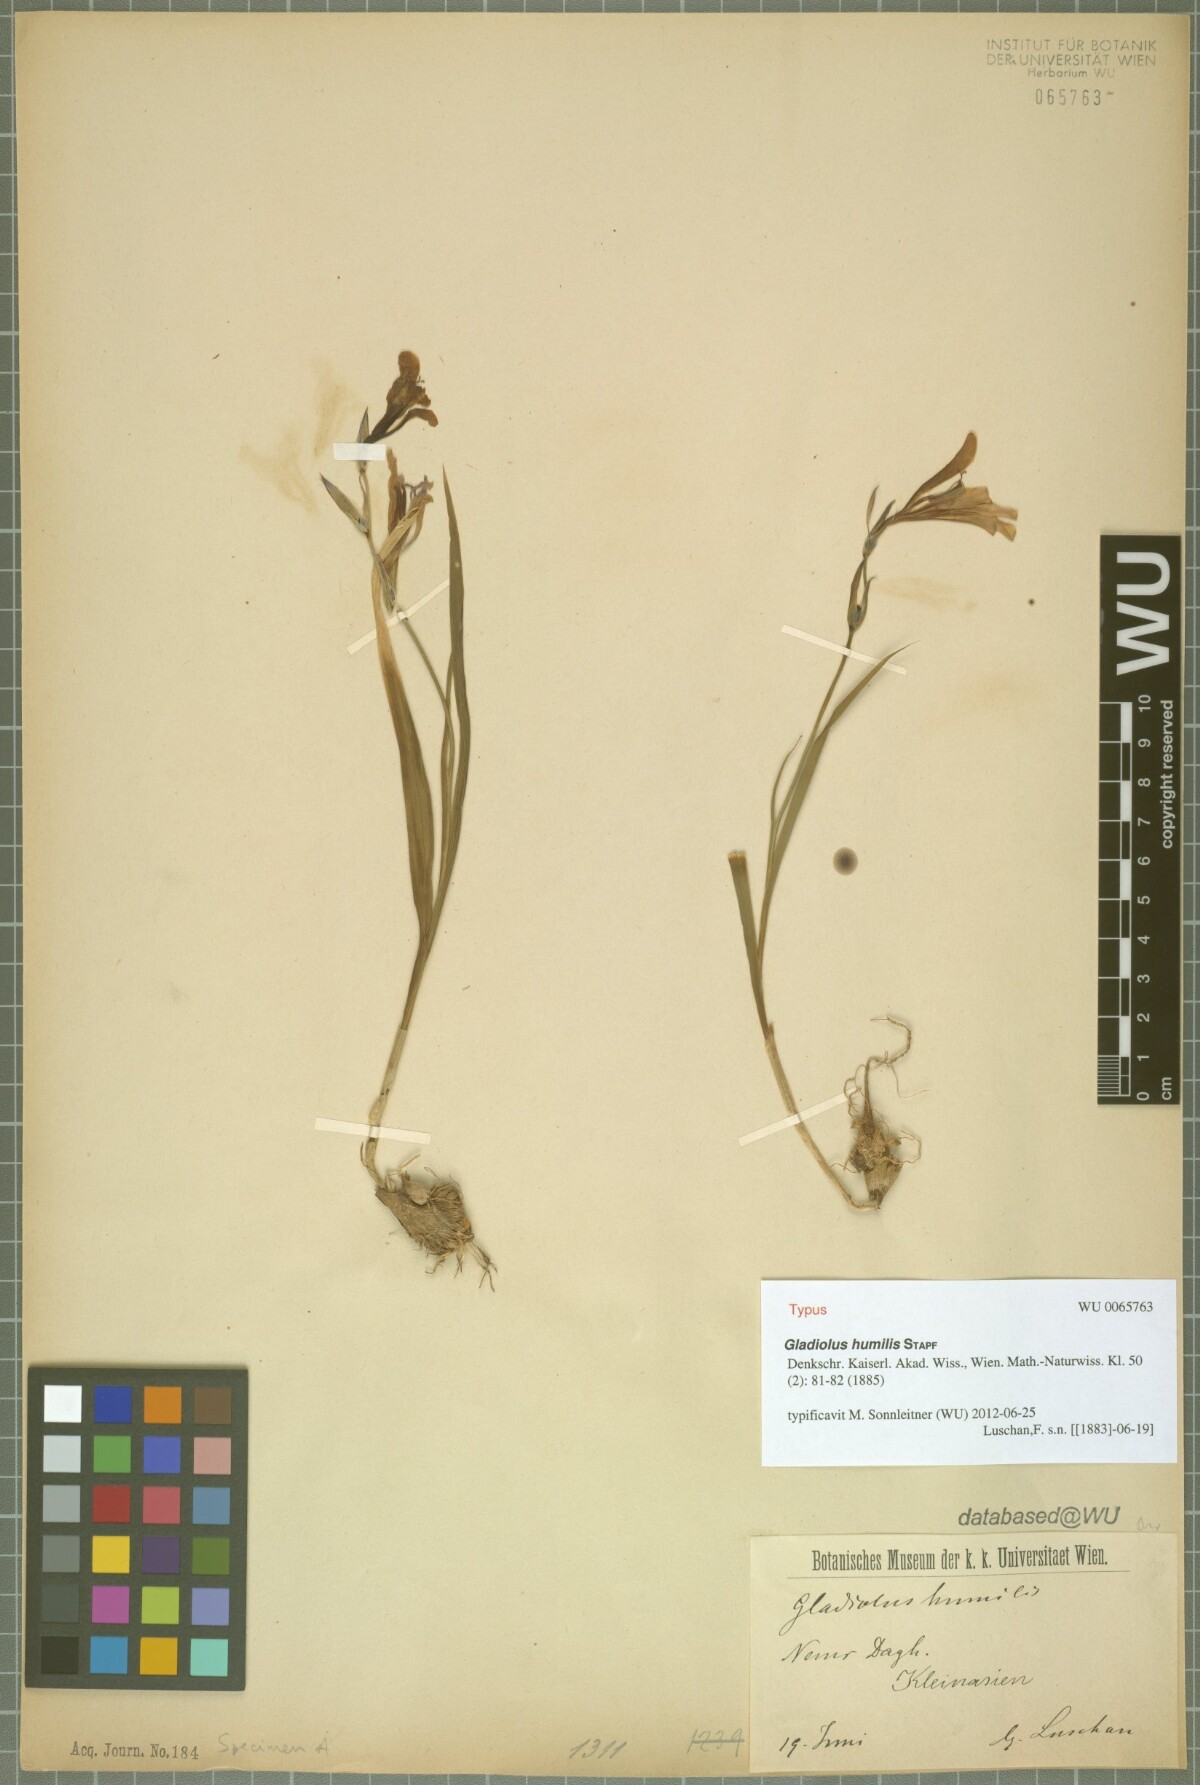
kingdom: Plantae
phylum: Tracheophyta
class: Liliopsida
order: Asparagales
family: Iridaceae
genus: Gladiolus
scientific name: Gladiolus humilis
